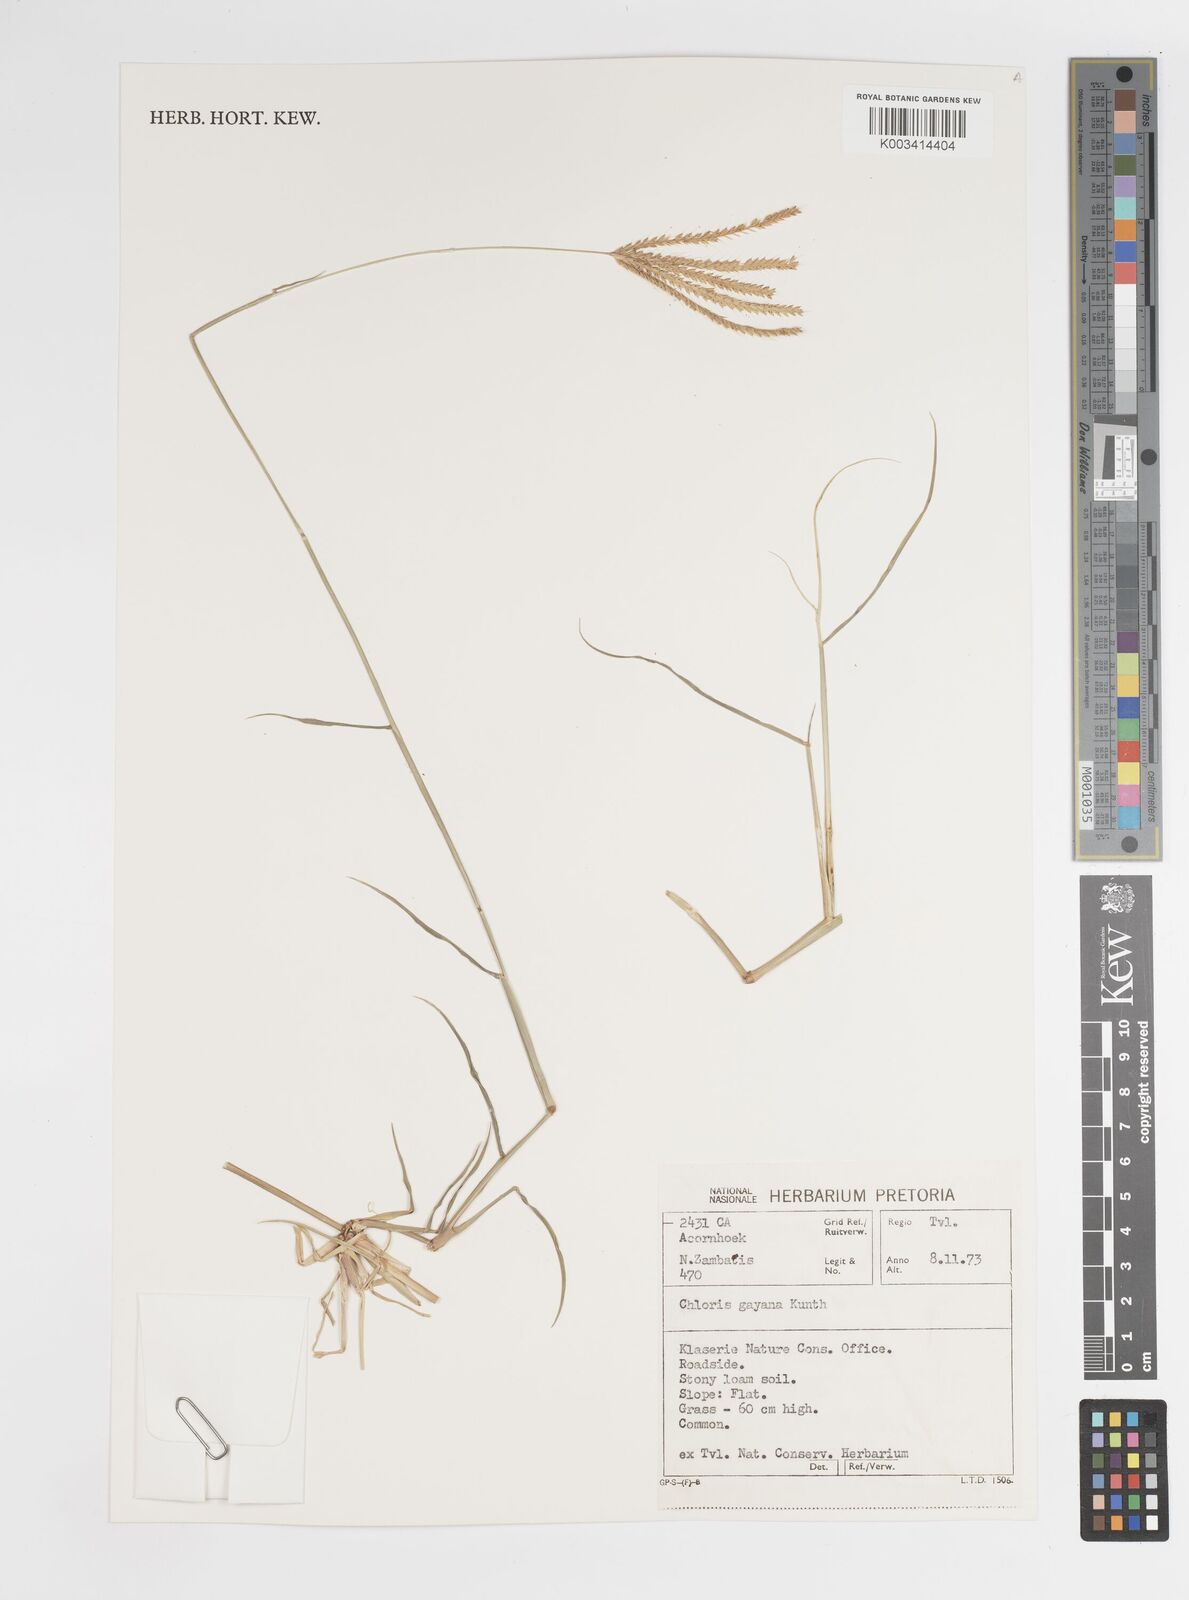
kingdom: Plantae
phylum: Tracheophyta
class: Liliopsida
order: Poales
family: Poaceae
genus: Chloris
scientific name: Chloris gayana
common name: Rhodes grass
